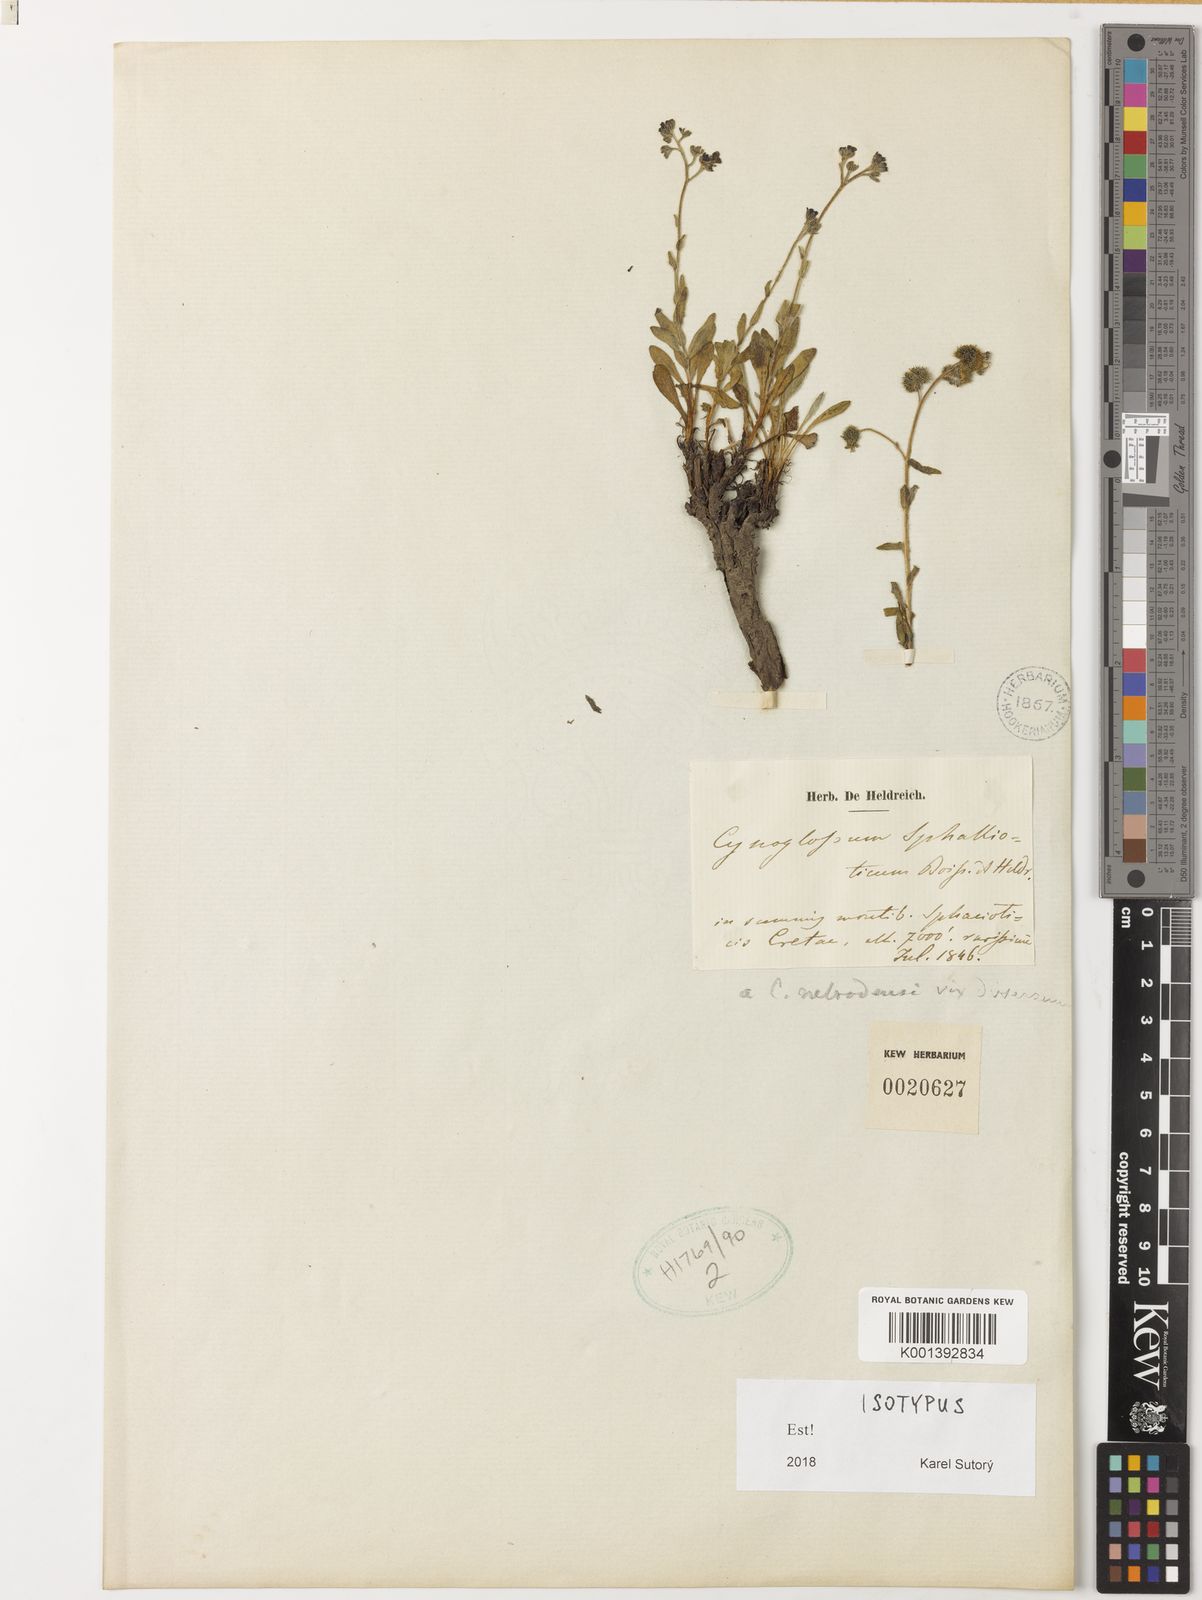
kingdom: Plantae
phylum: Tracheophyta
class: Magnoliopsida
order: Boraginales
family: Boraginaceae
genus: Cynoglossum
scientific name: Cynoglossum sphacioticum
